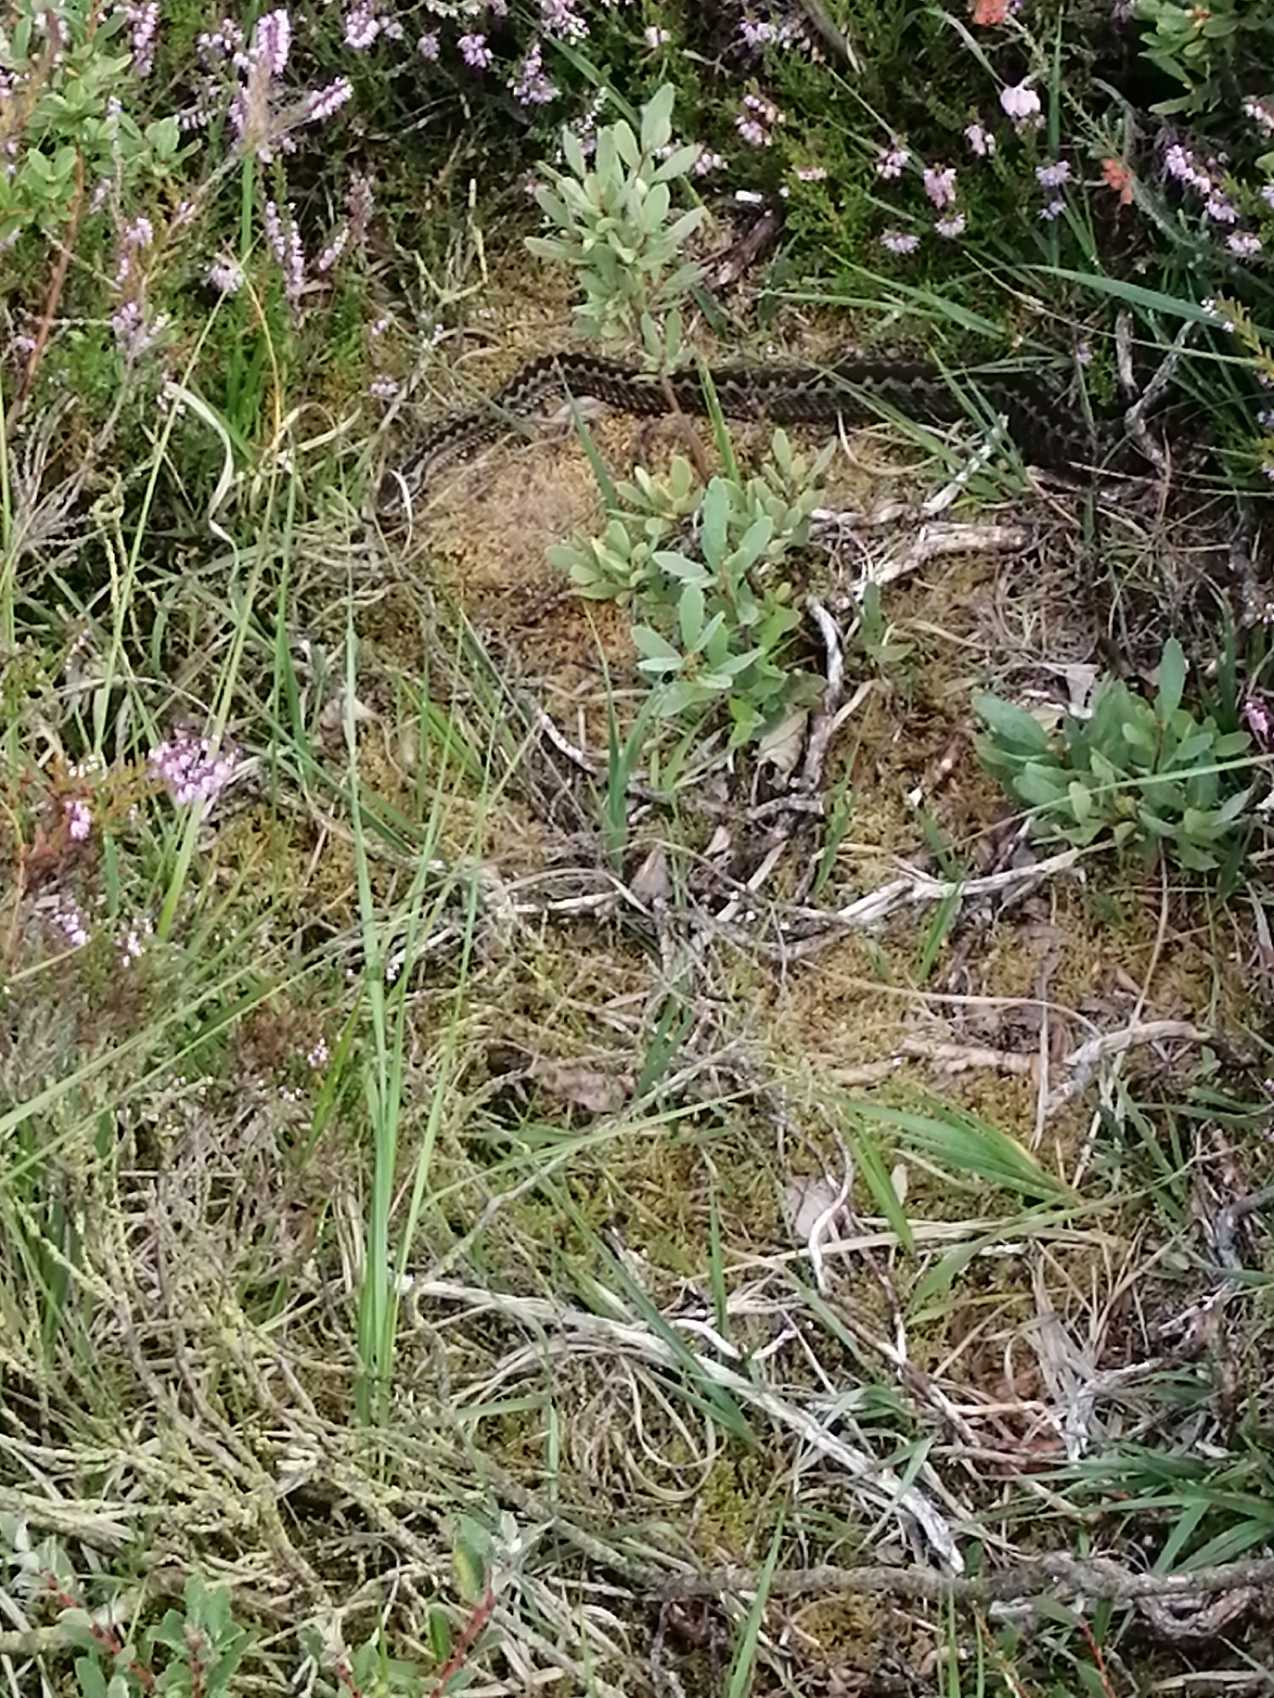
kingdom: Animalia
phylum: Chordata
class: Squamata
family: Viperidae
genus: Vipera
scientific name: Vipera berus
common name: Hugorm
